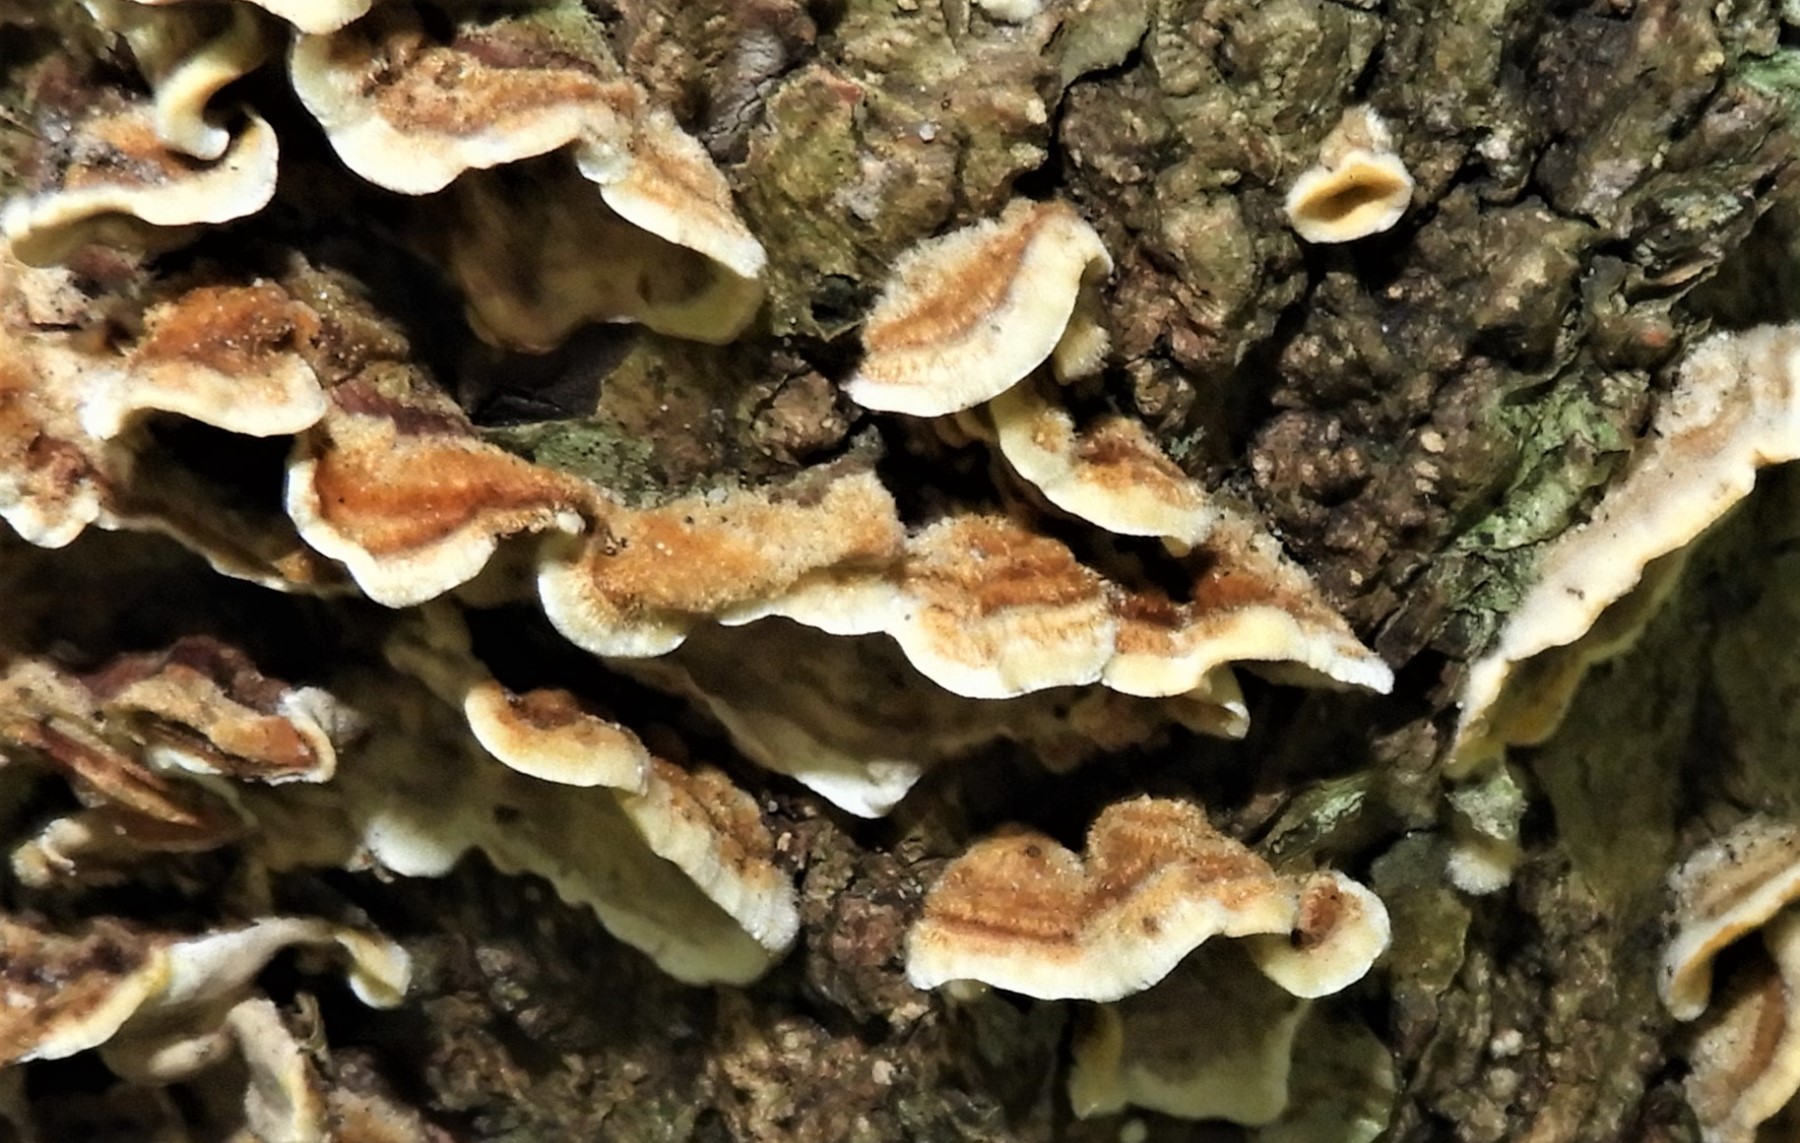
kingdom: Fungi
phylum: Basidiomycota
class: Agaricomycetes
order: Russulales
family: Stereaceae
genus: Stereum
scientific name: Stereum hirsutum
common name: håret lædersvamp
